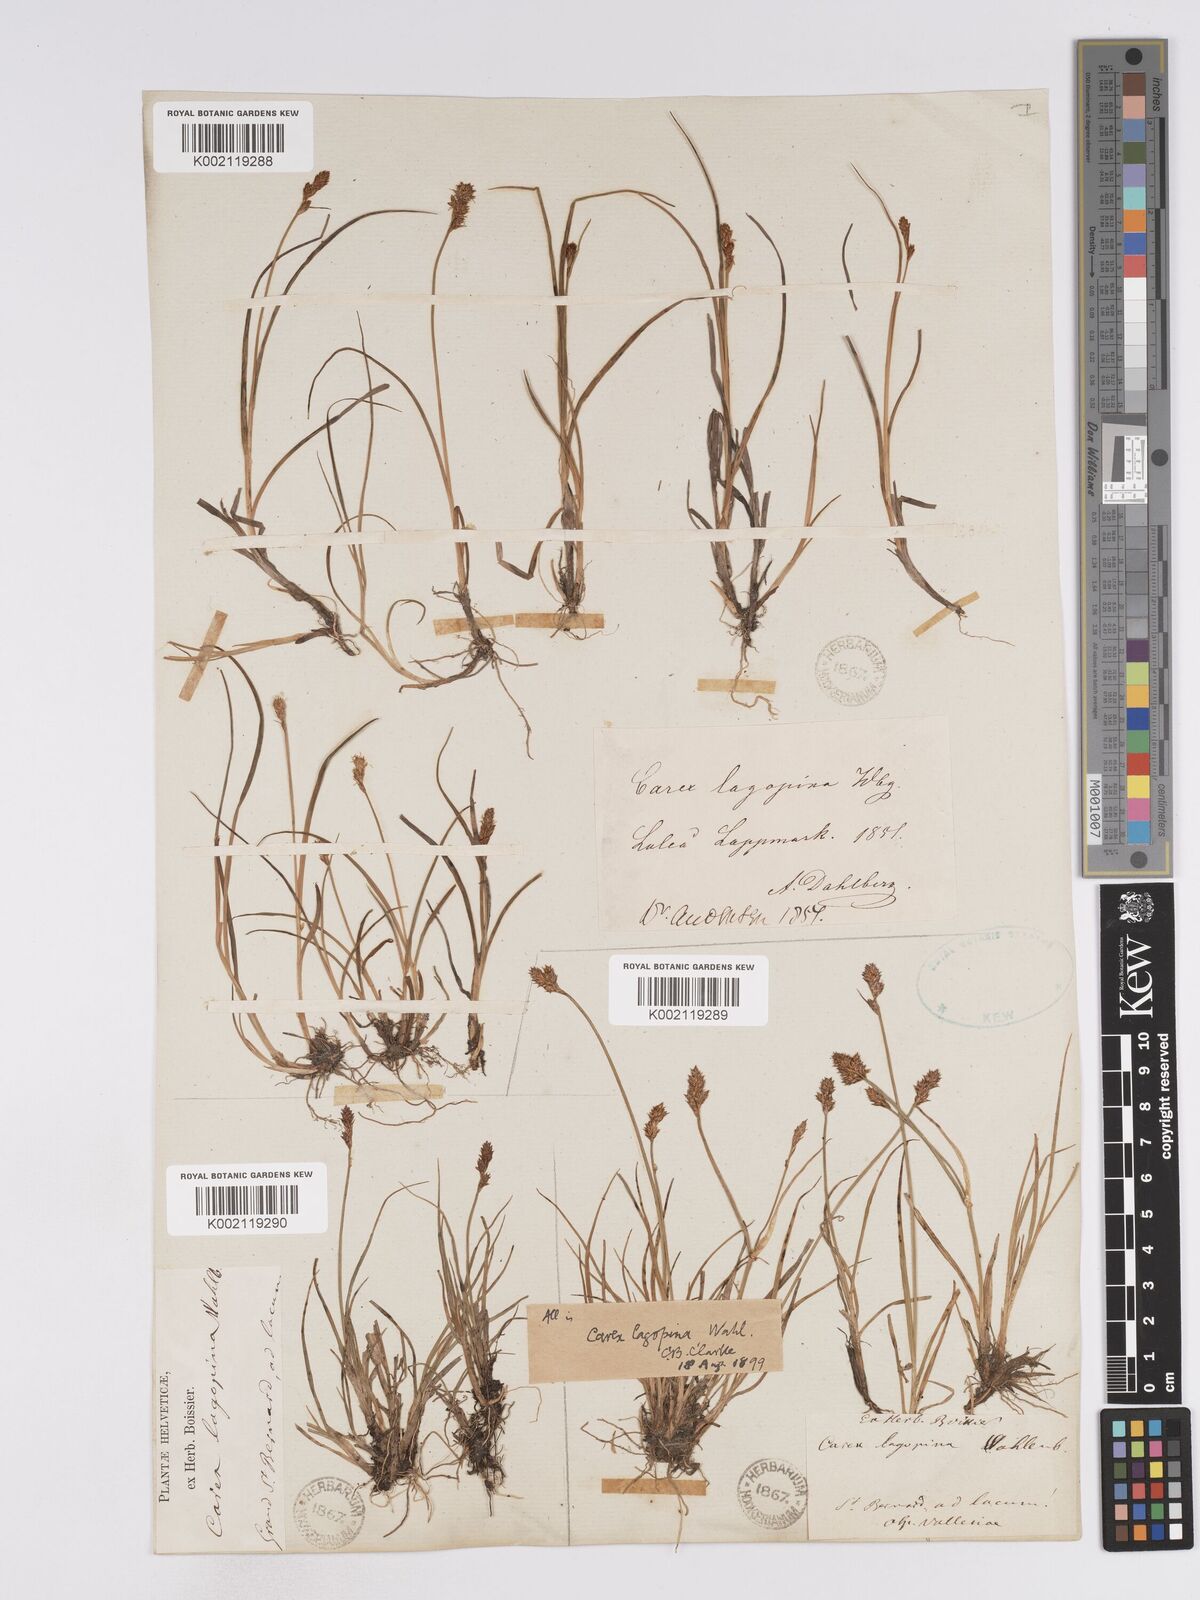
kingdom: Plantae
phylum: Tracheophyta
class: Liliopsida
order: Poales
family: Cyperaceae
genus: Carex
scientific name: Carex lachenalii
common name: Hare's-foot sedge
